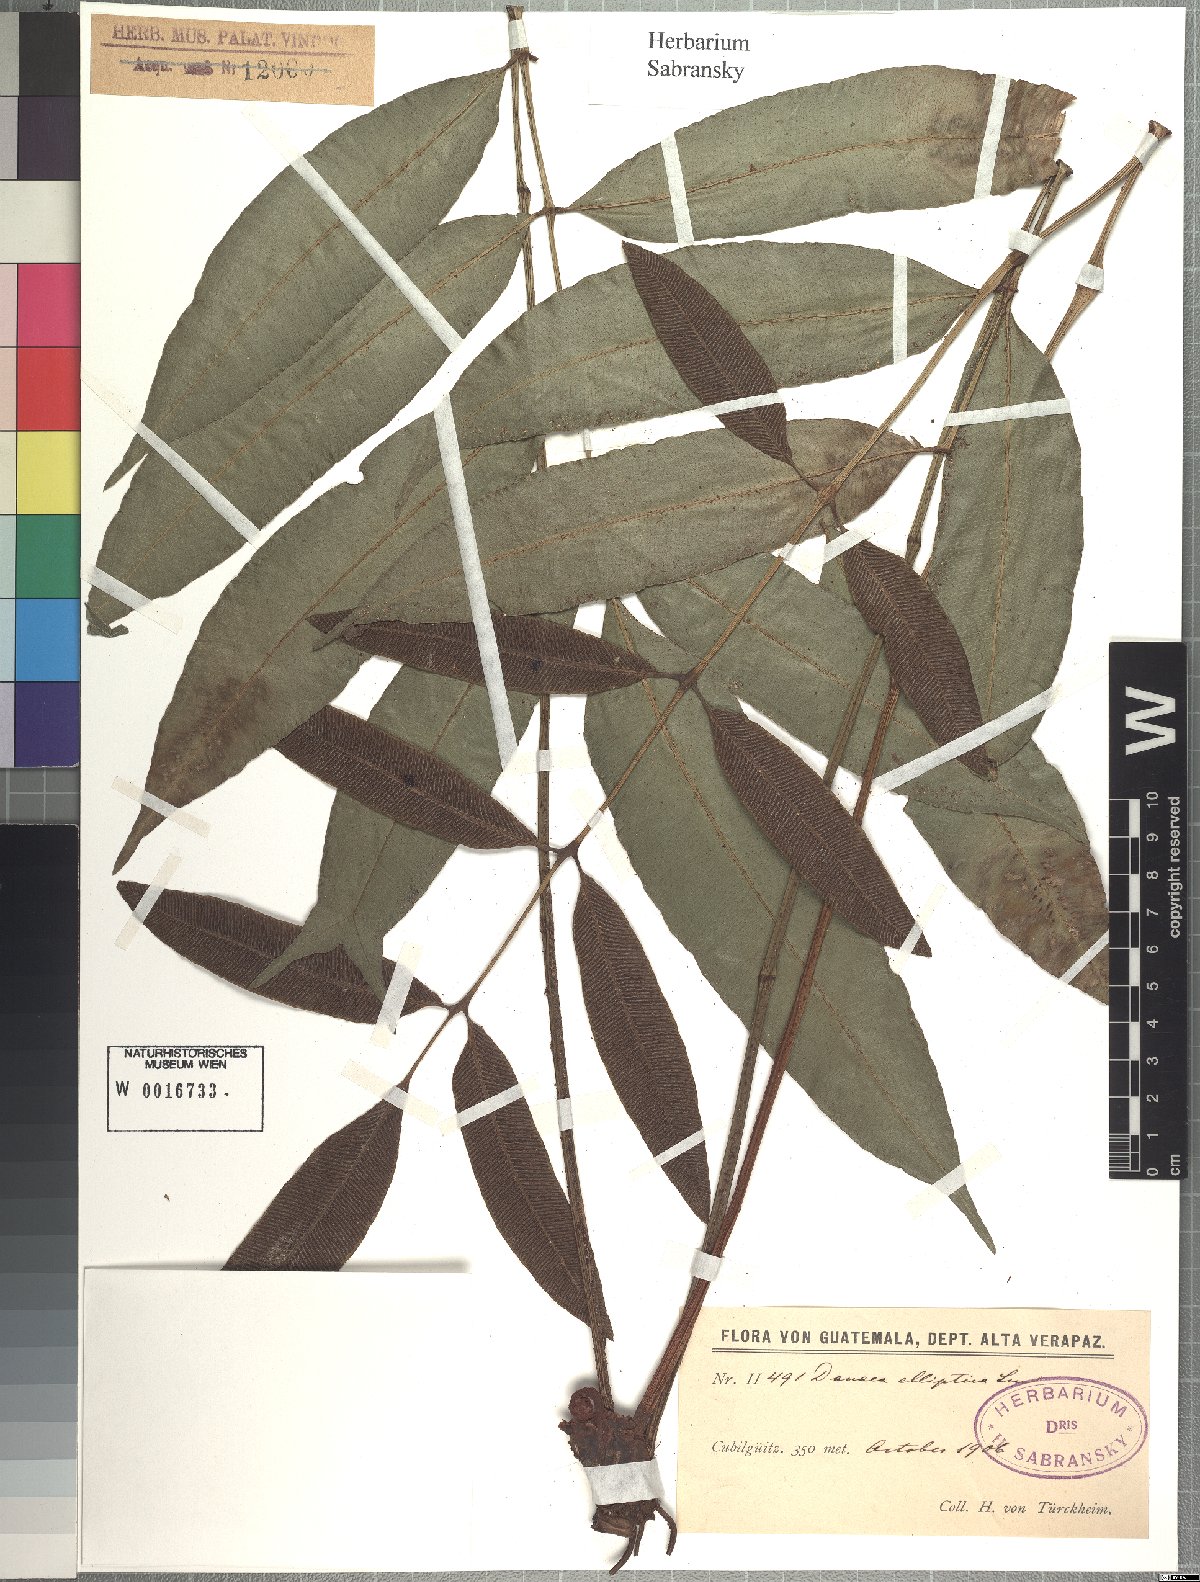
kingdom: Plantae
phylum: Tracheophyta
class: Polypodiopsida
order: Marattiales
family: Marattiaceae
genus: Danaea
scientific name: Danaea nodosa
